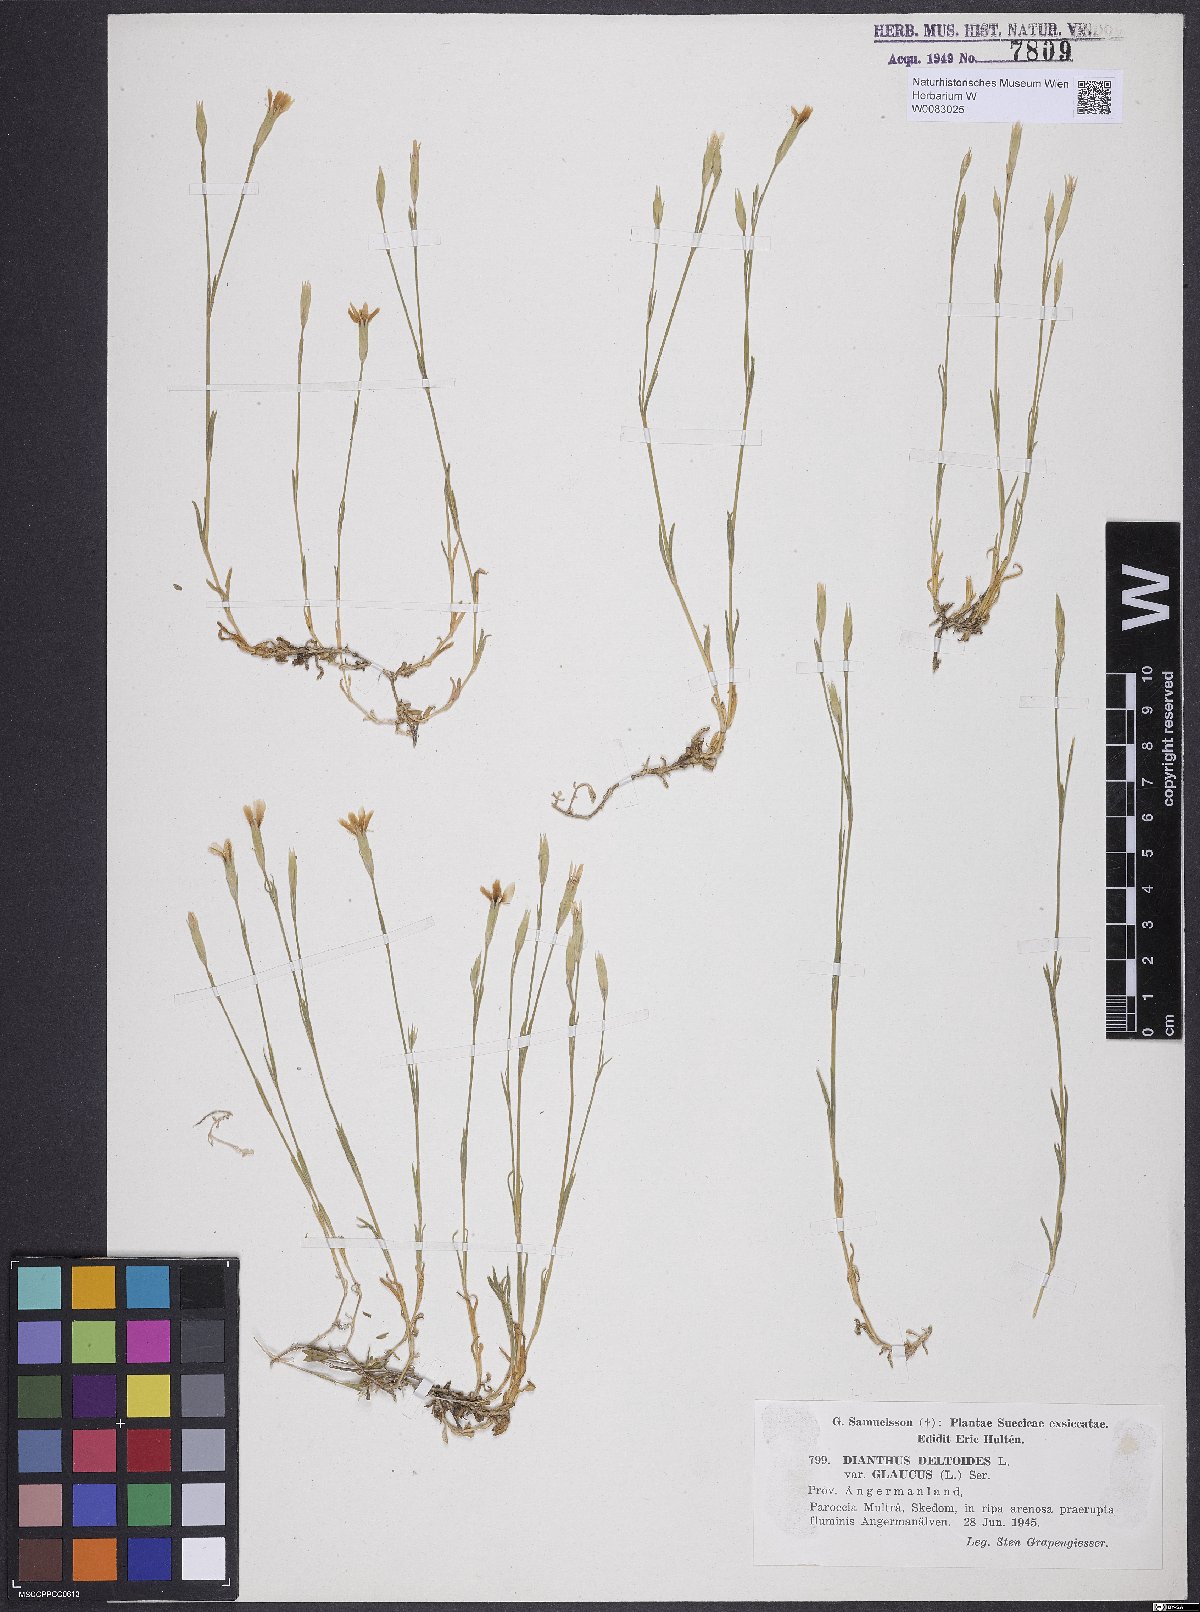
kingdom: Plantae
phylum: Tracheophyta
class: Magnoliopsida
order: Caryophyllales
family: Caryophyllaceae
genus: Dianthus
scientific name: Dianthus deltoides
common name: Maiden pink
